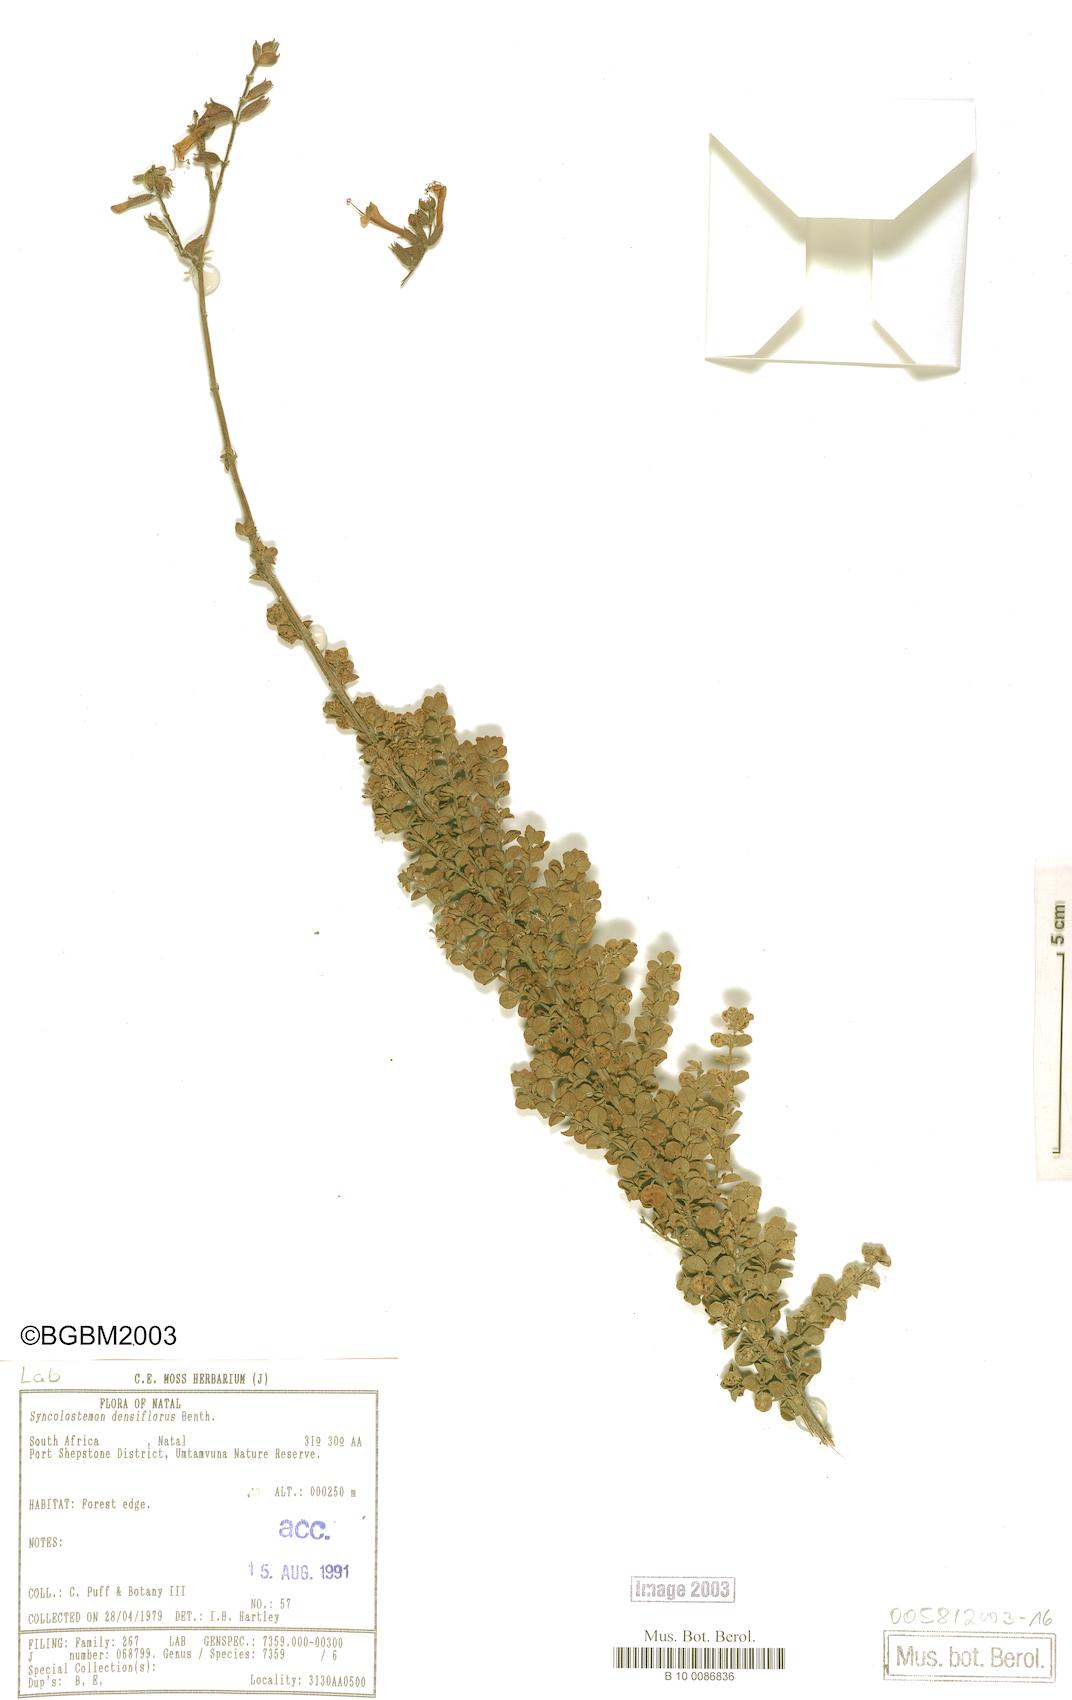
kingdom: Plantae
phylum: Tracheophyta
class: Magnoliopsida
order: Lamiales
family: Lamiaceae
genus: Syncolostemon
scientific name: Syncolostemon densiflorus
